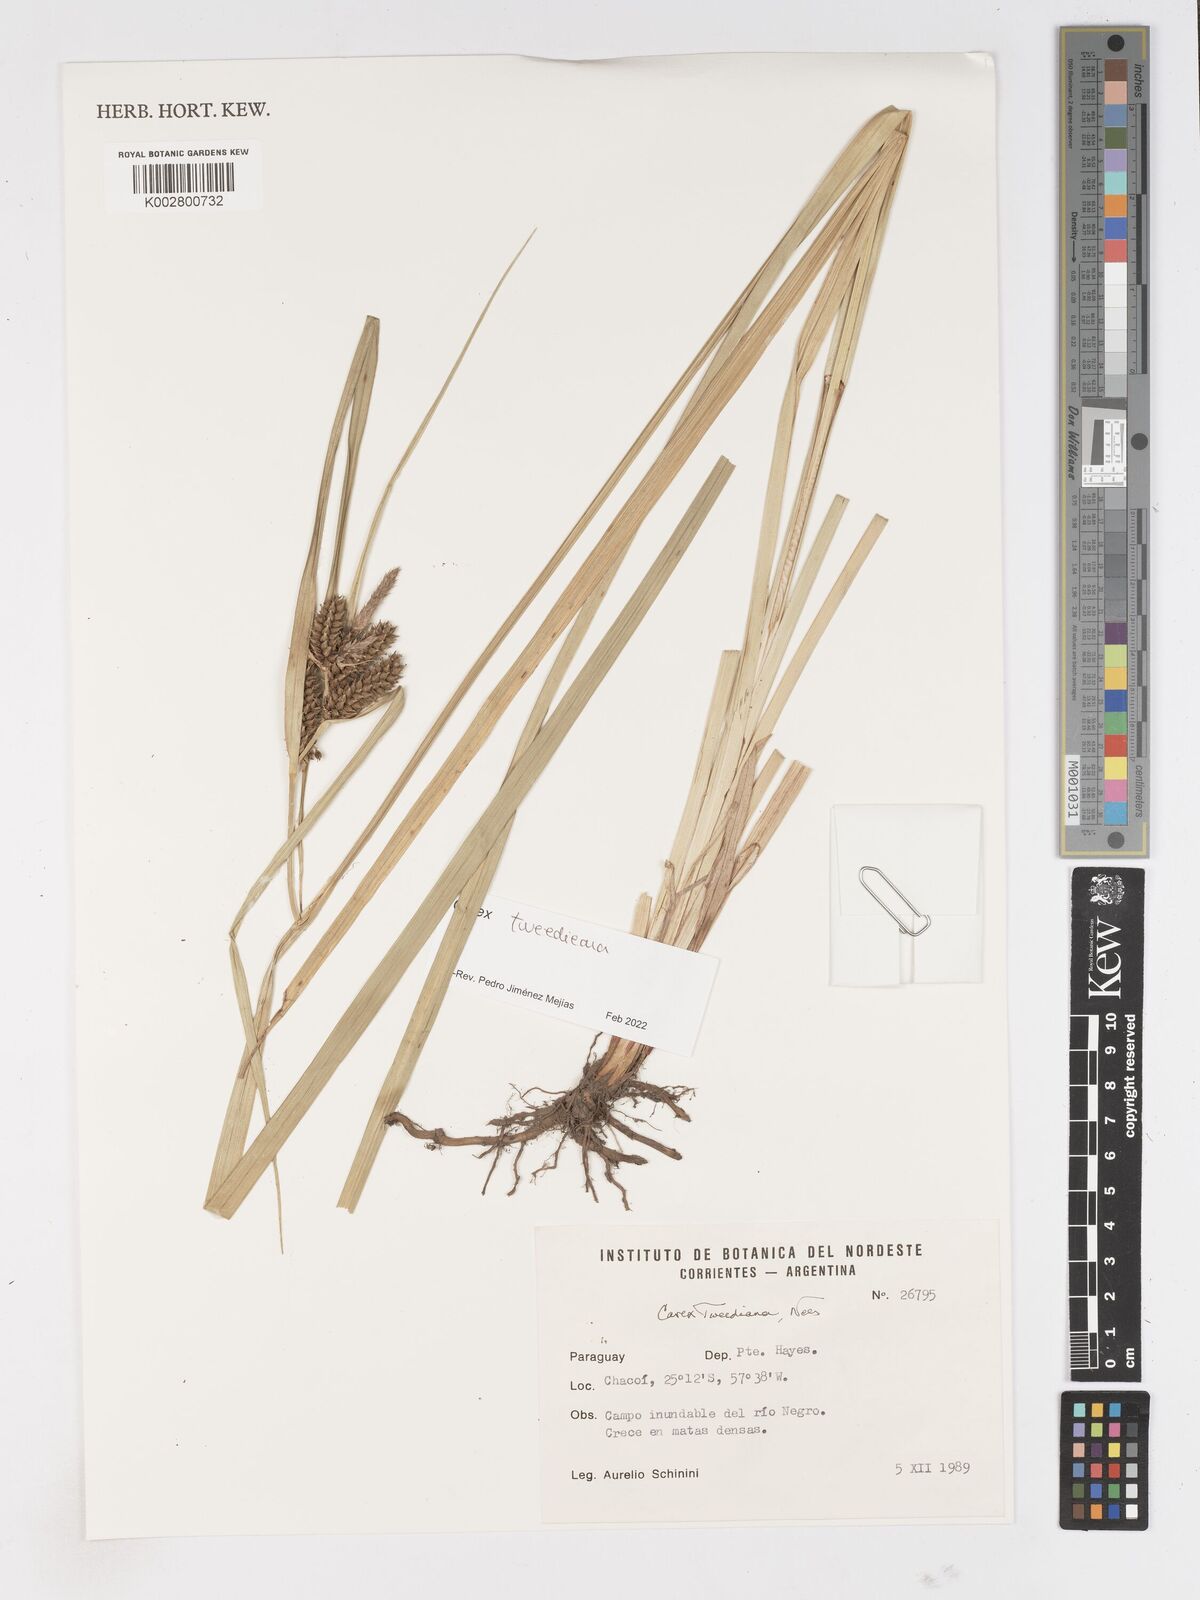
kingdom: Plantae
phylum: Tracheophyta
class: Liliopsida
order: Poales
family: Cyperaceae
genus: Carex
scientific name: Carex tweedieana
